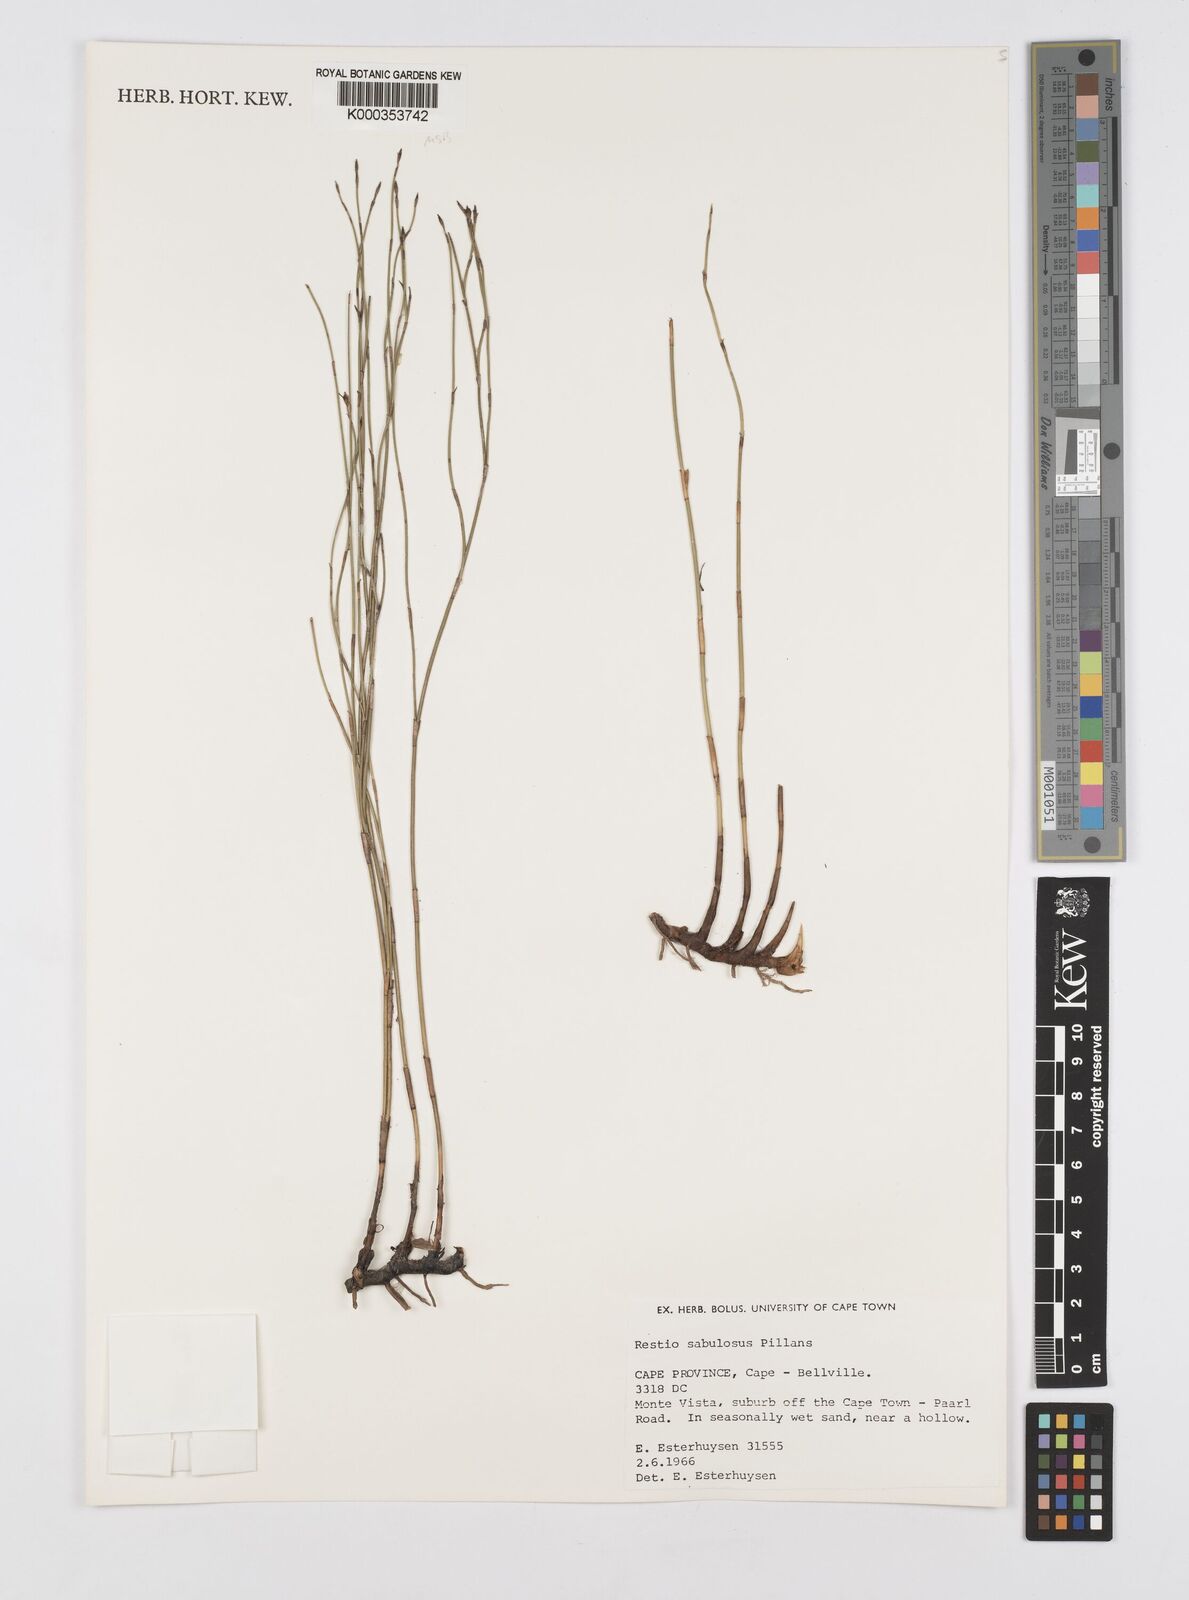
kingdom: Plantae
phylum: Tracheophyta
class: Liliopsida
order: Poales
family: Restionaceae
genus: Restio
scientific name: Restio sabulosus
